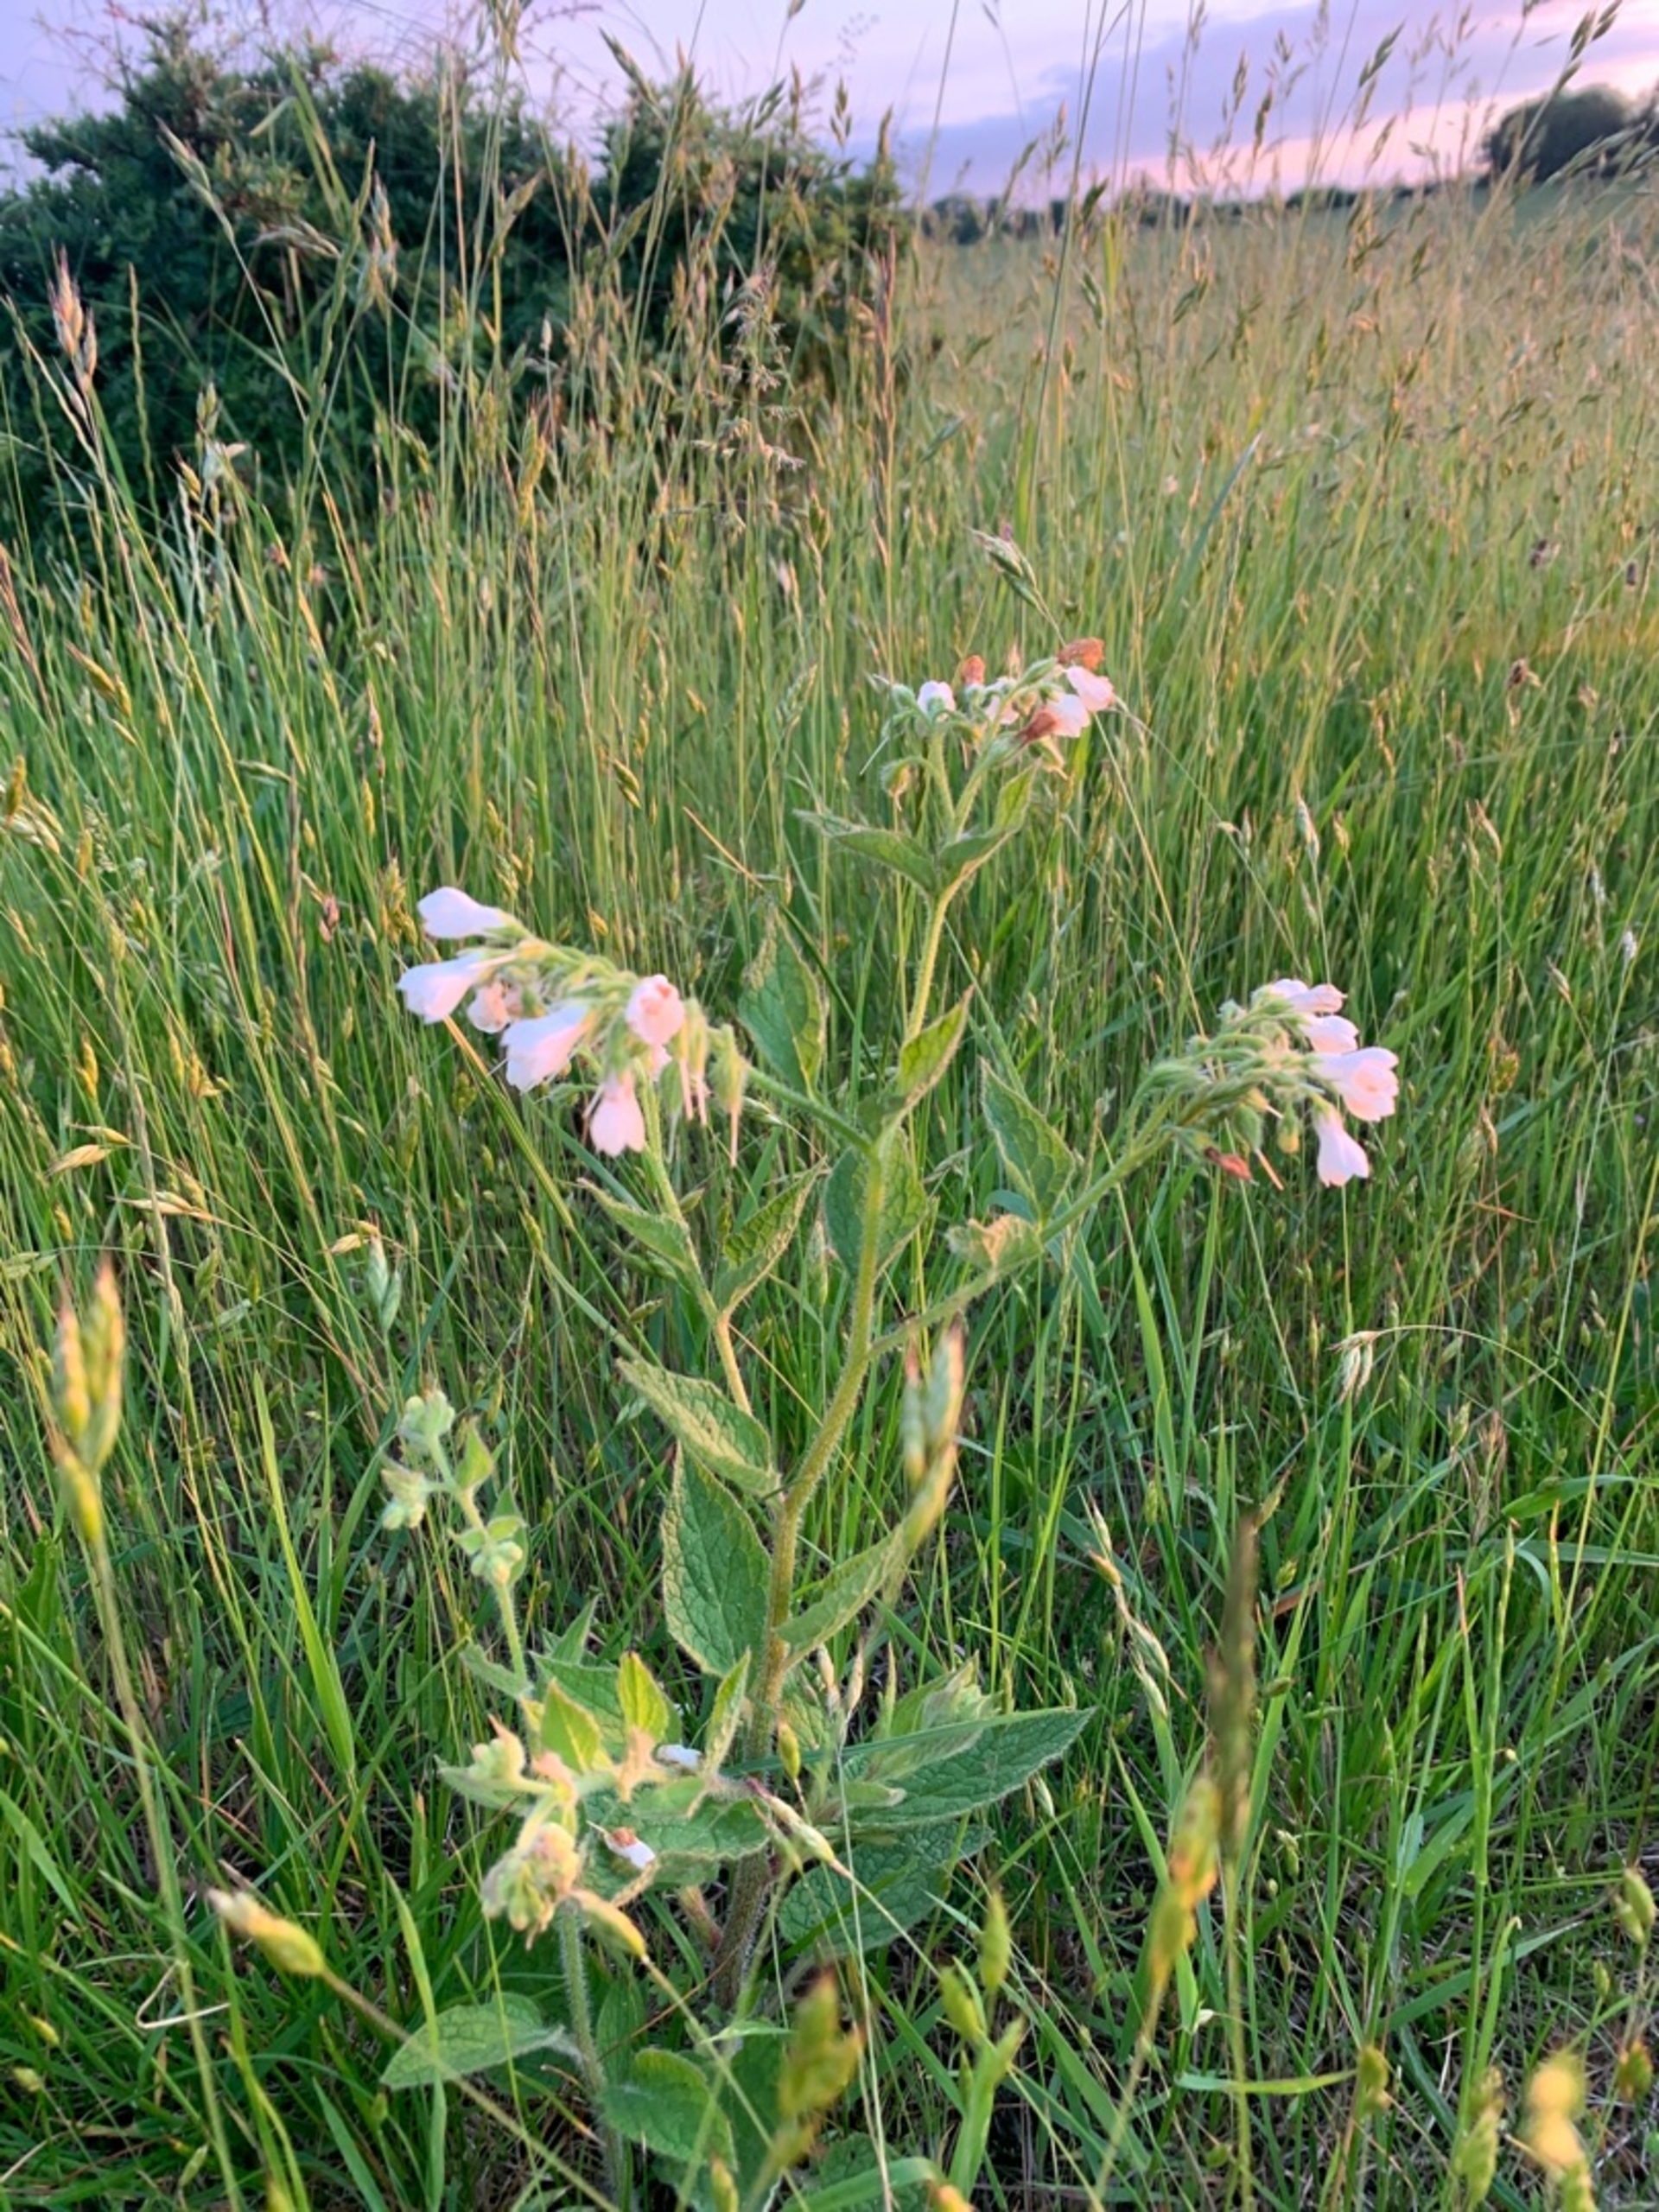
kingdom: Plantae
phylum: Tracheophyta
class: Magnoliopsida
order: Boraginales
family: Boraginaceae
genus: Symphytum
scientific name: Symphytum
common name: Kulsukkerslægten
